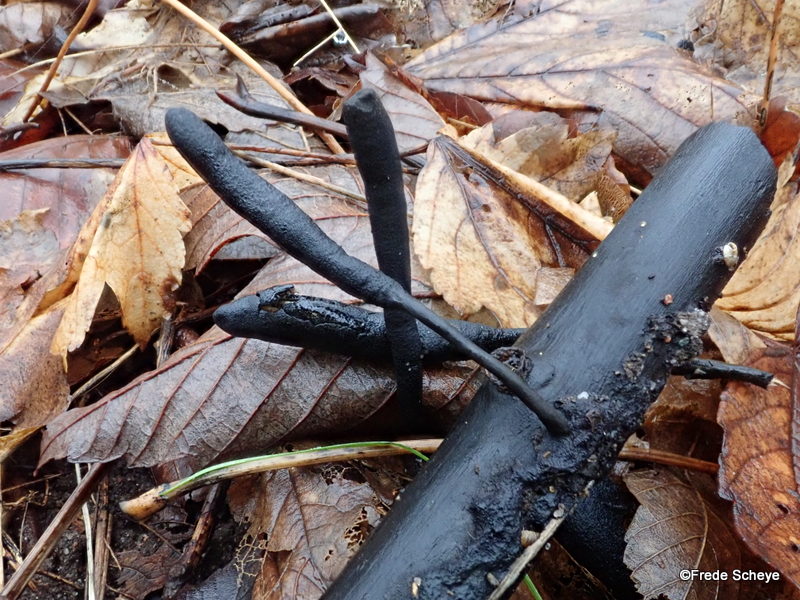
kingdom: Fungi
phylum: Ascomycota
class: Sordariomycetes
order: Xylariales
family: Xylariaceae
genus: Xylaria
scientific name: Xylaria longipes
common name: slank stødsvamp
